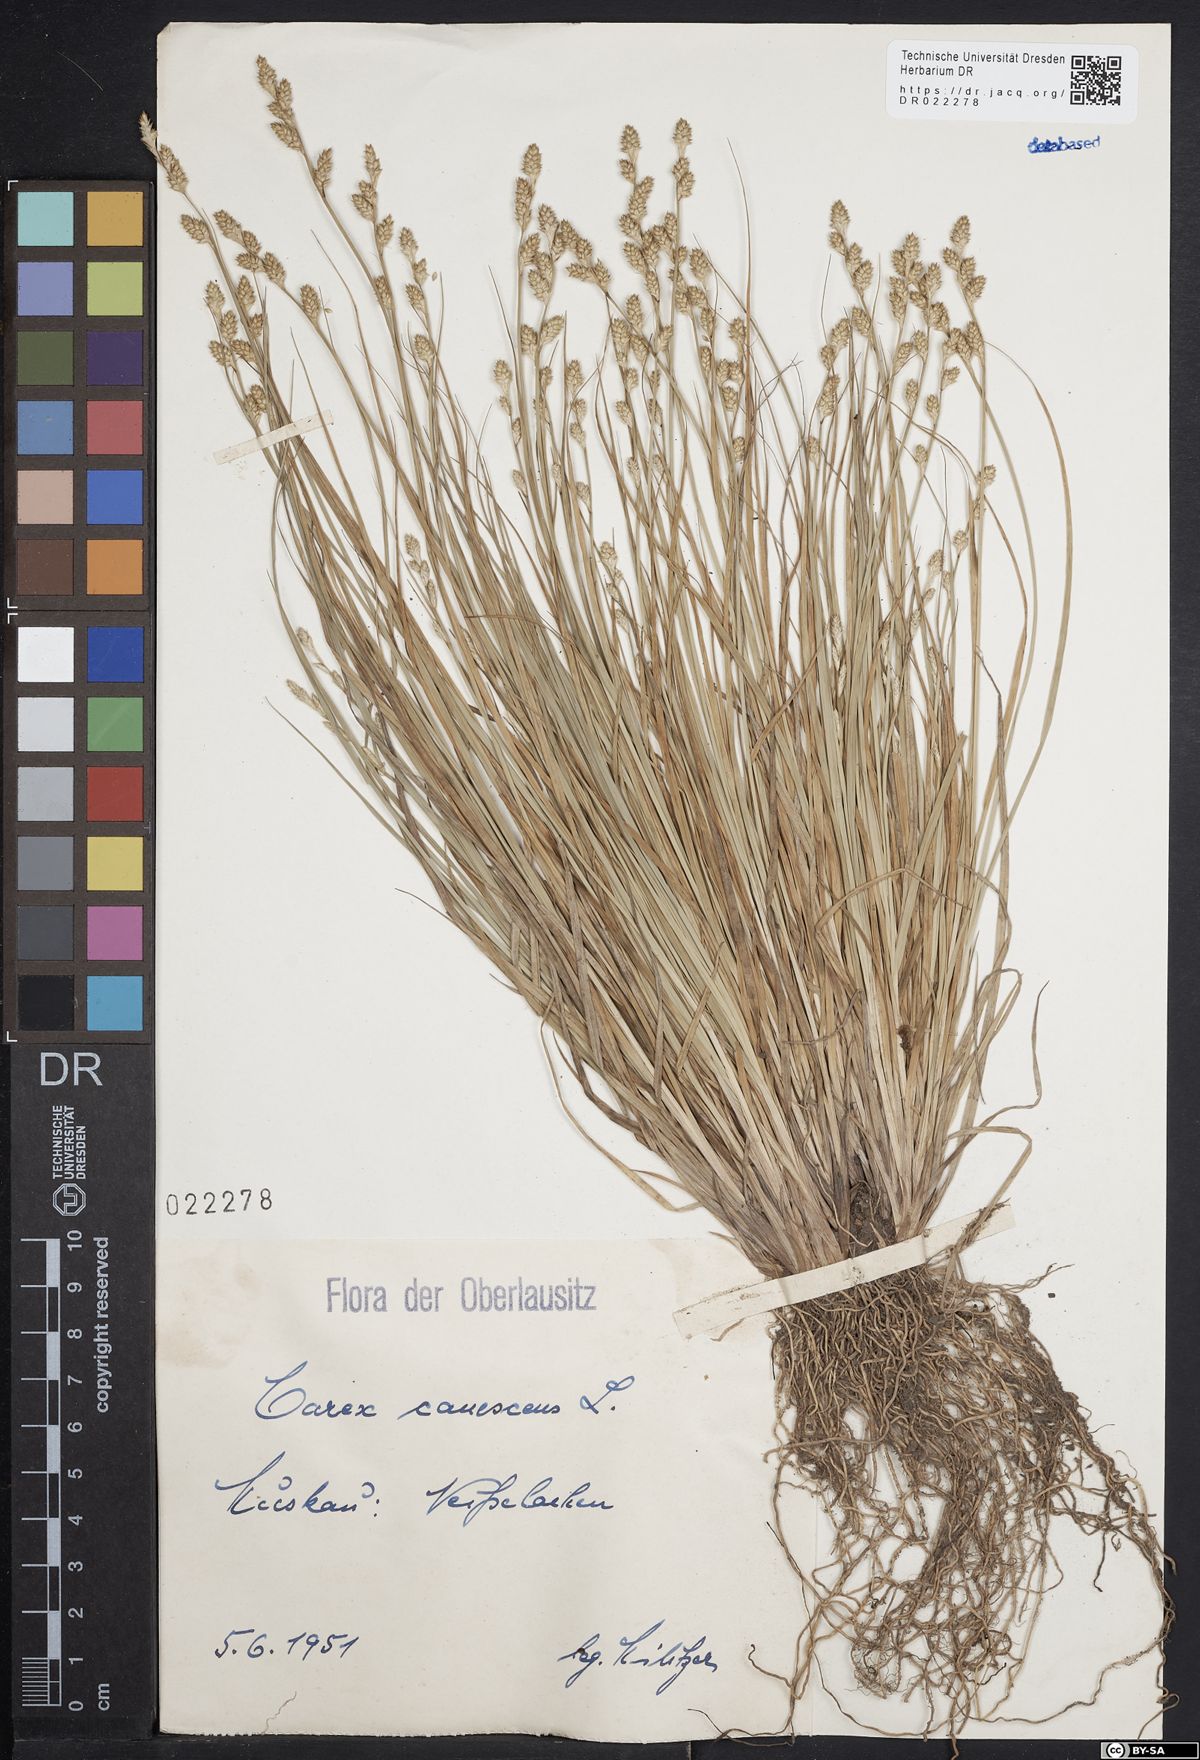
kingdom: Plantae
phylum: Tracheophyta
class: Liliopsida
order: Poales
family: Cyperaceae
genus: Carex
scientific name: Carex canescens
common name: White sedge
